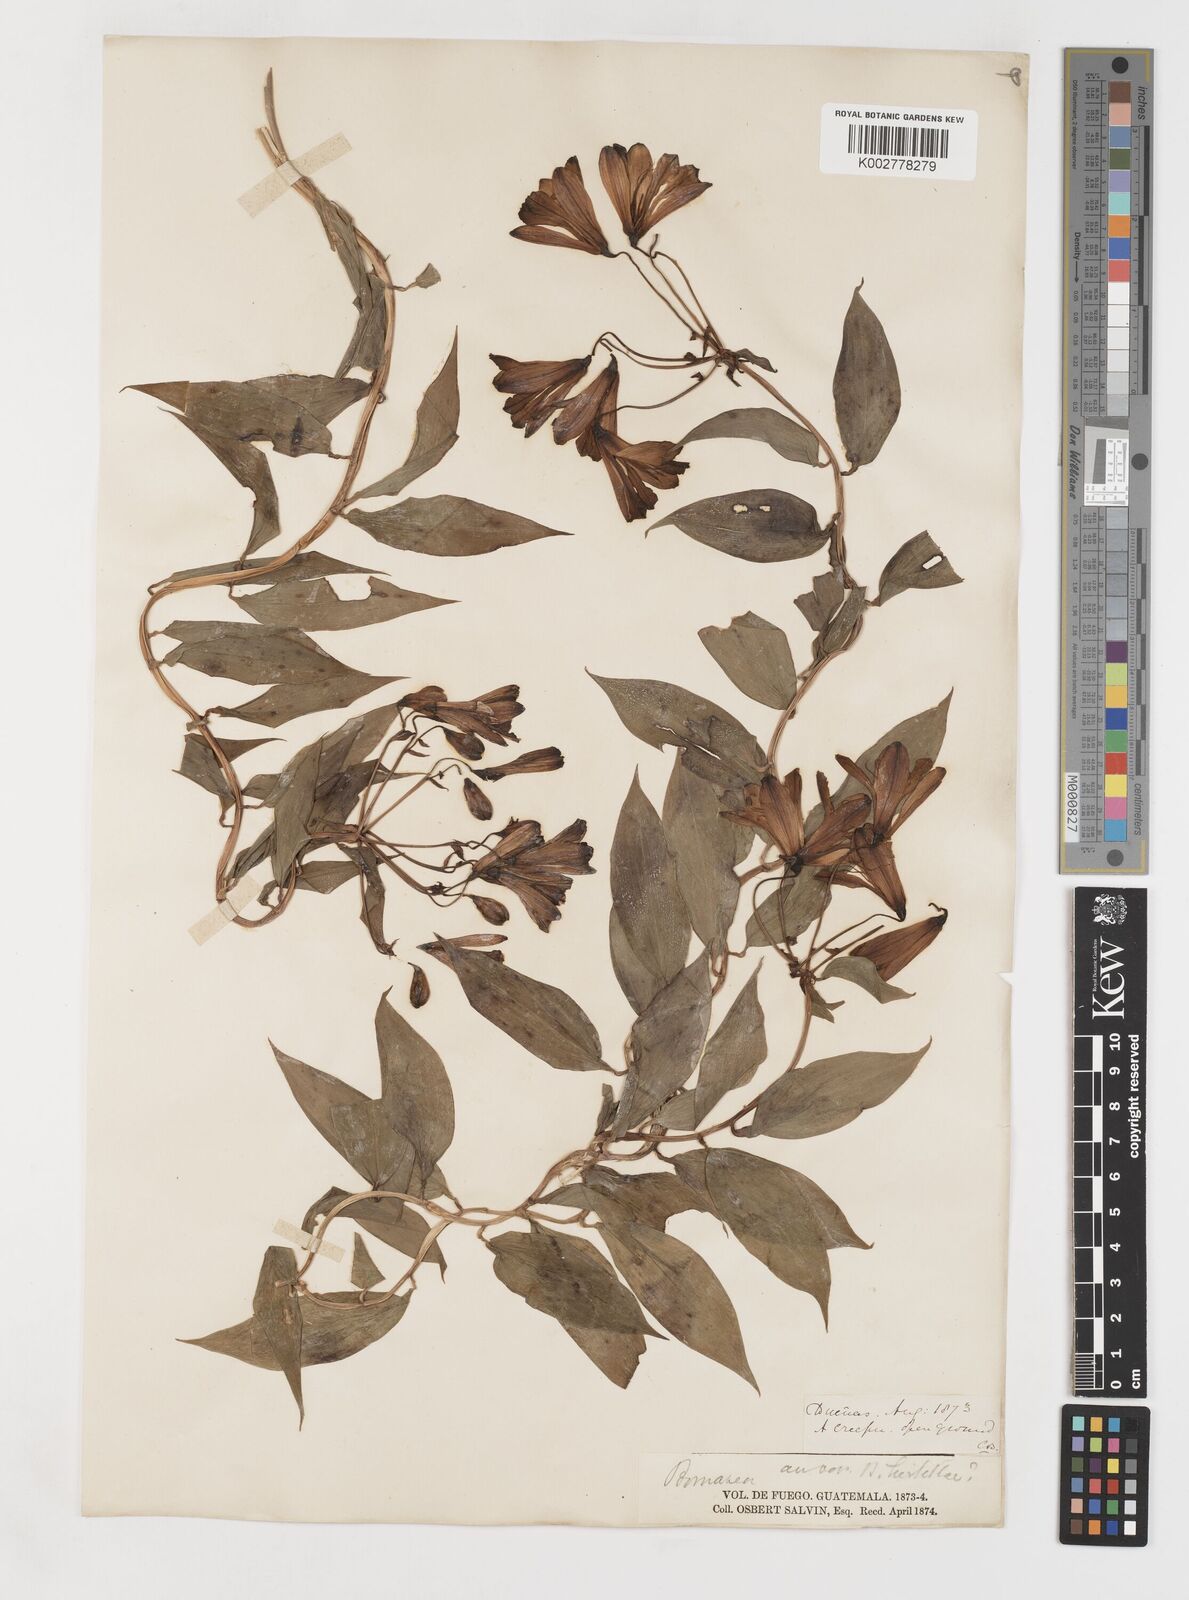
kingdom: Plantae
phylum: Tracheophyta
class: Liliopsida
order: Liliales
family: Alstroemeriaceae
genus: Bomarea
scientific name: Bomarea edulis
